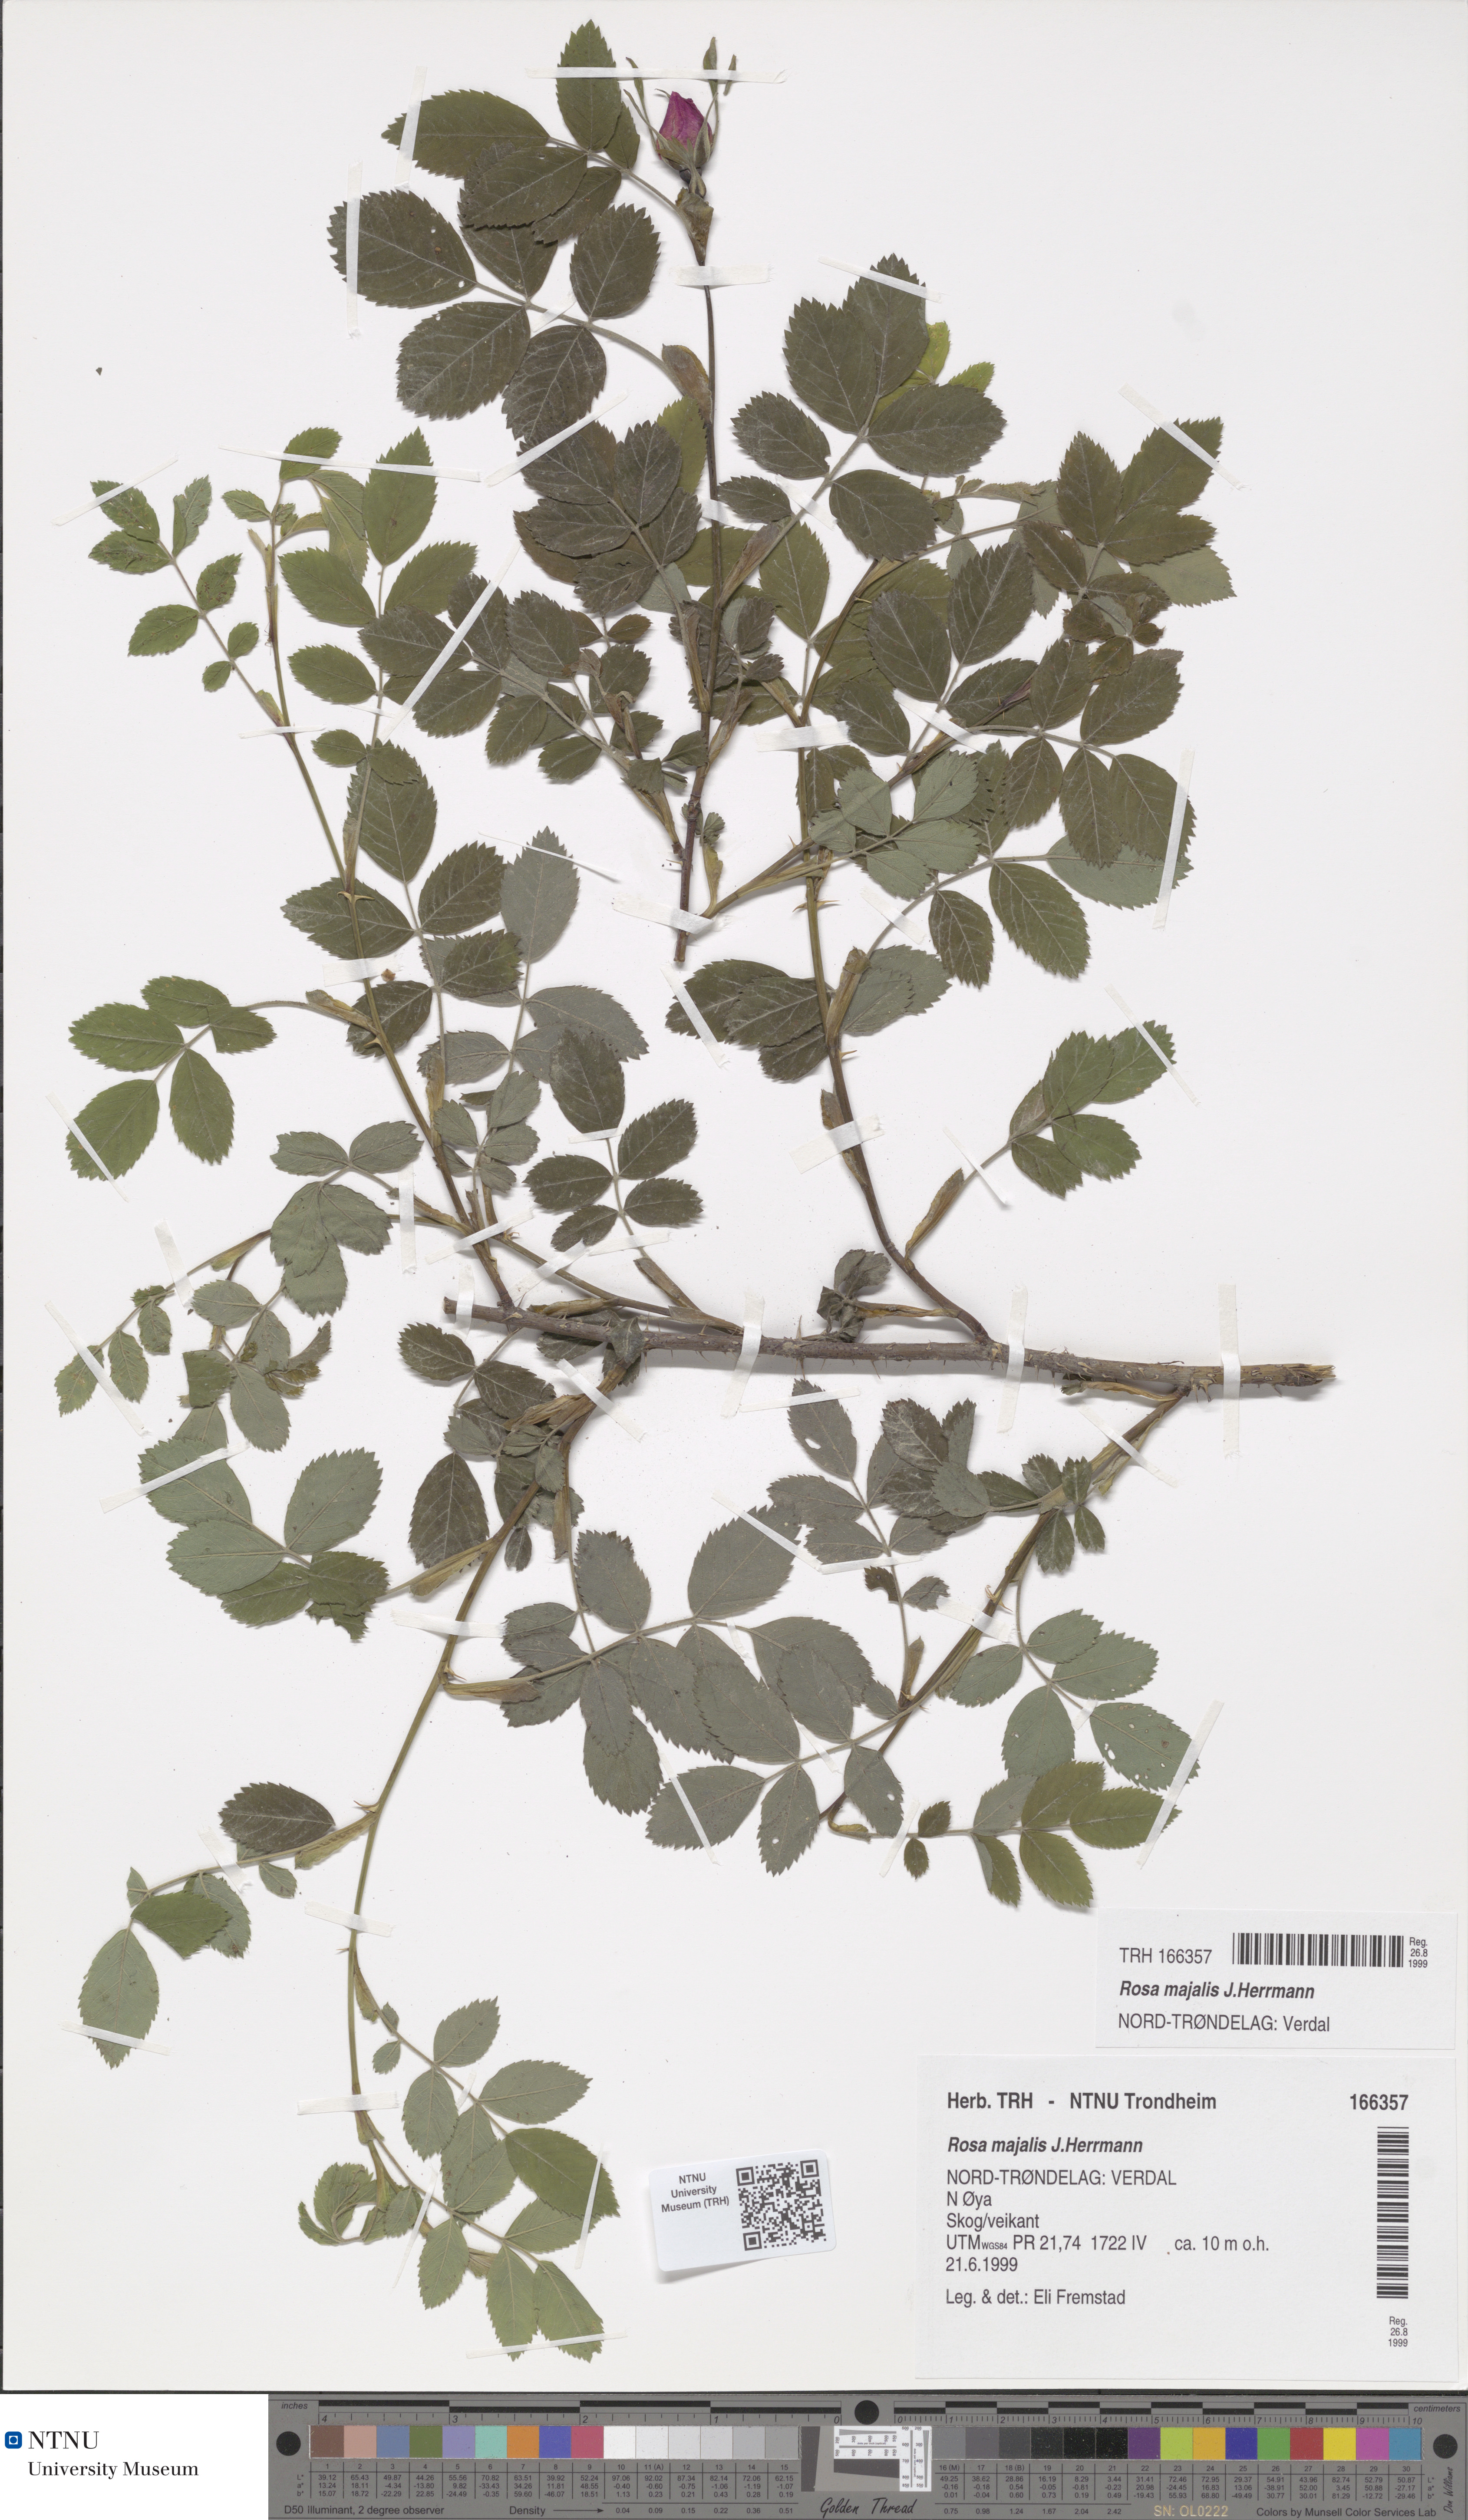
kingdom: Plantae
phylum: Tracheophyta
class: Magnoliopsida
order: Rosales
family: Rosaceae
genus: Rosa
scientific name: Rosa majalis
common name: Cinnamon rose
